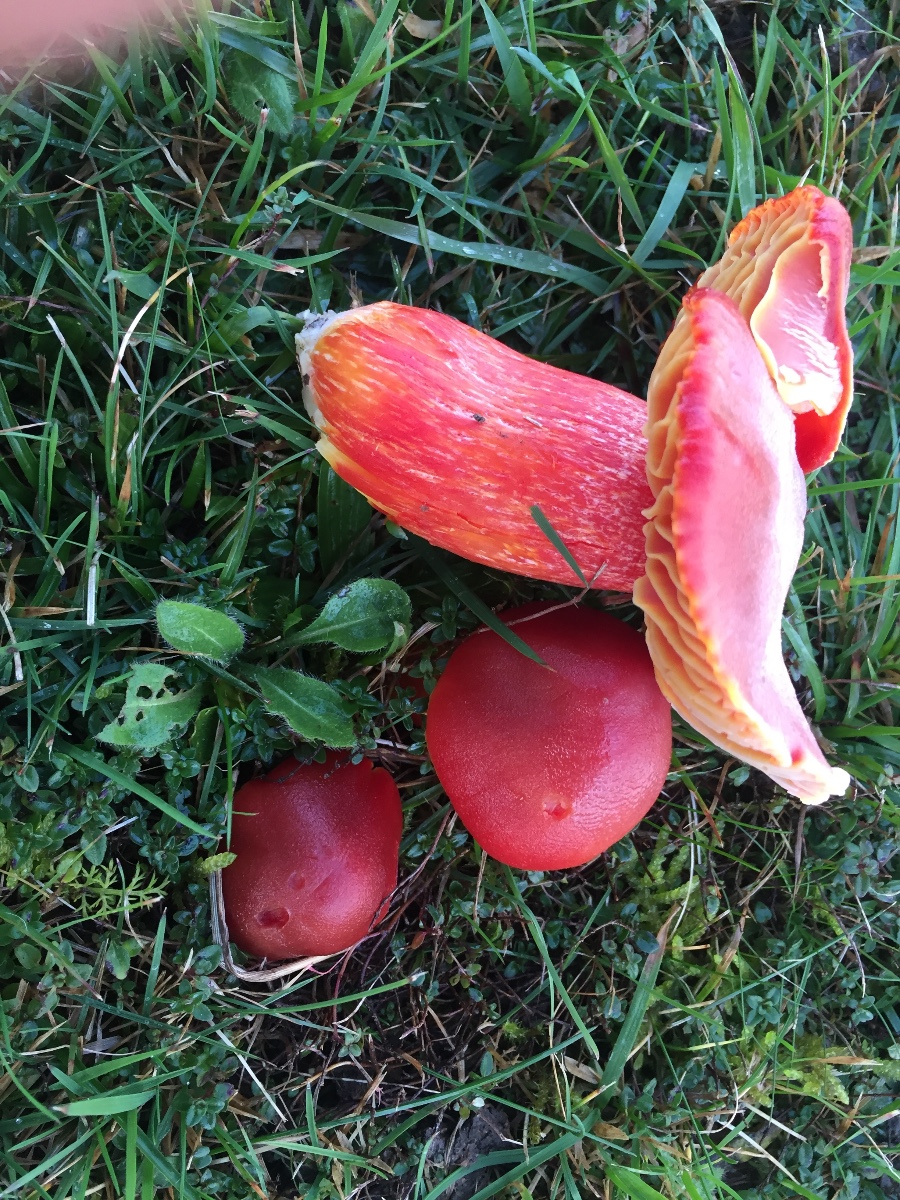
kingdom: Fungi
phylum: Basidiomycota
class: Agaricomycetes
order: Agaricales
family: Hygrophoraceae
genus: Hygrocybe
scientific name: Hygrocybe punicea
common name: skarlagen-vokshat
